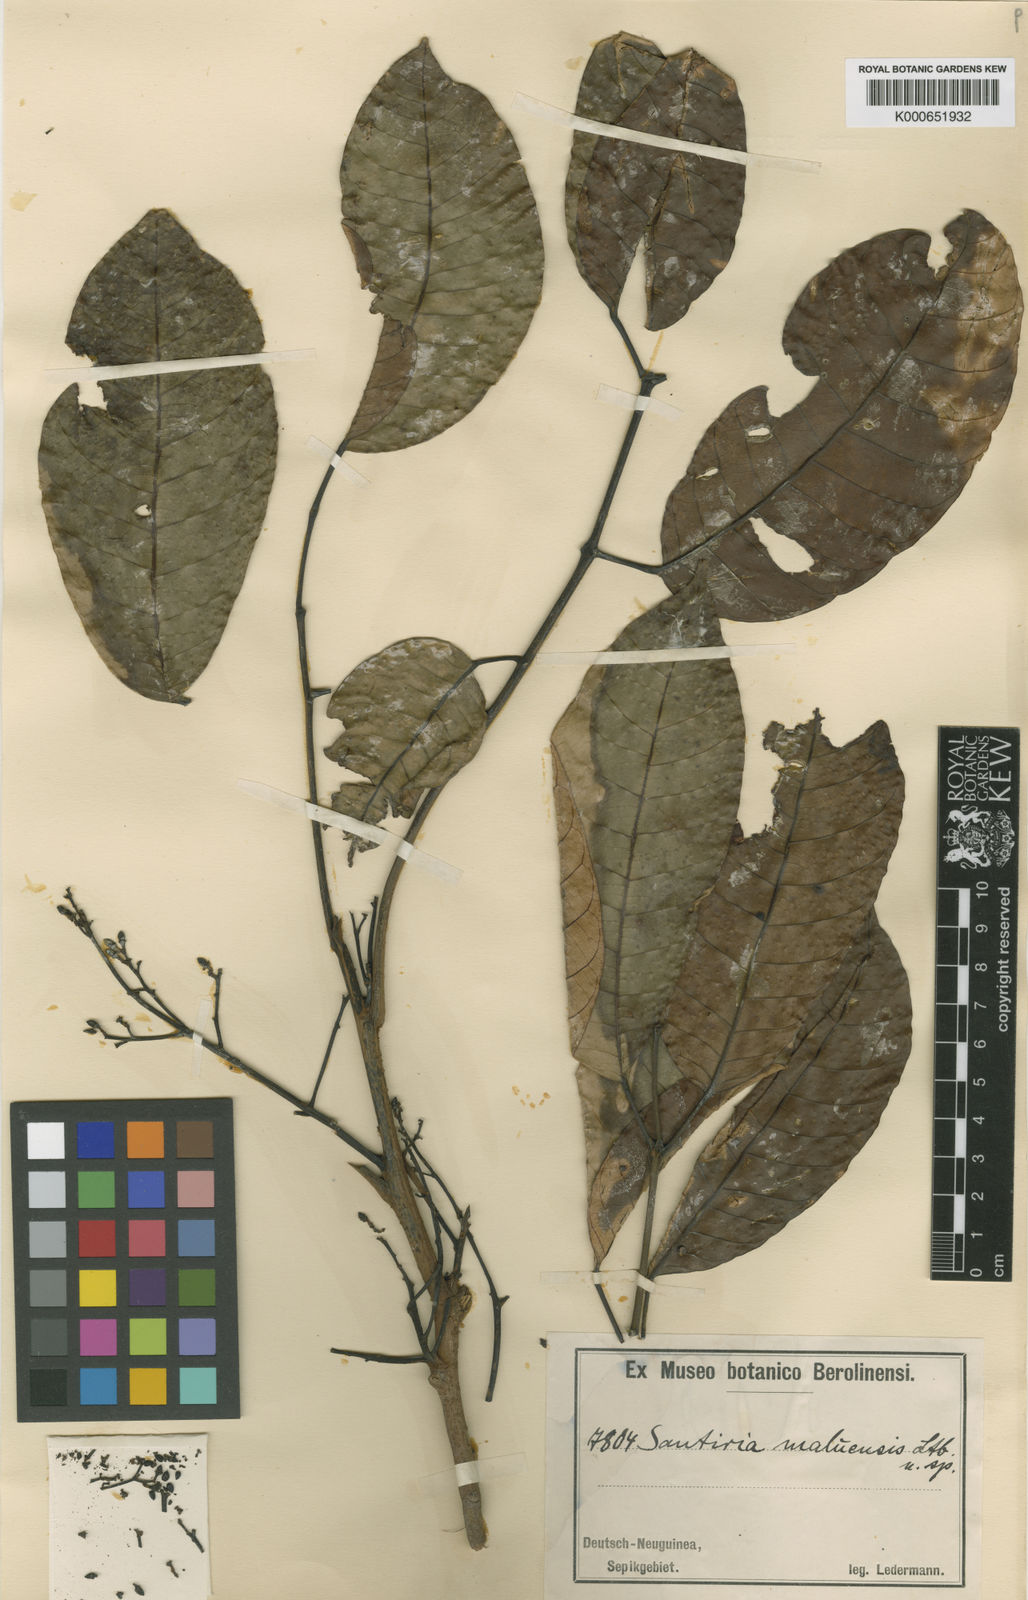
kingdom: Plantae
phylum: Tracheophyta
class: Magnoliopsida
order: Sapindales
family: Burseraceae
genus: Haplolobus
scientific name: Haplolobus floribundus
